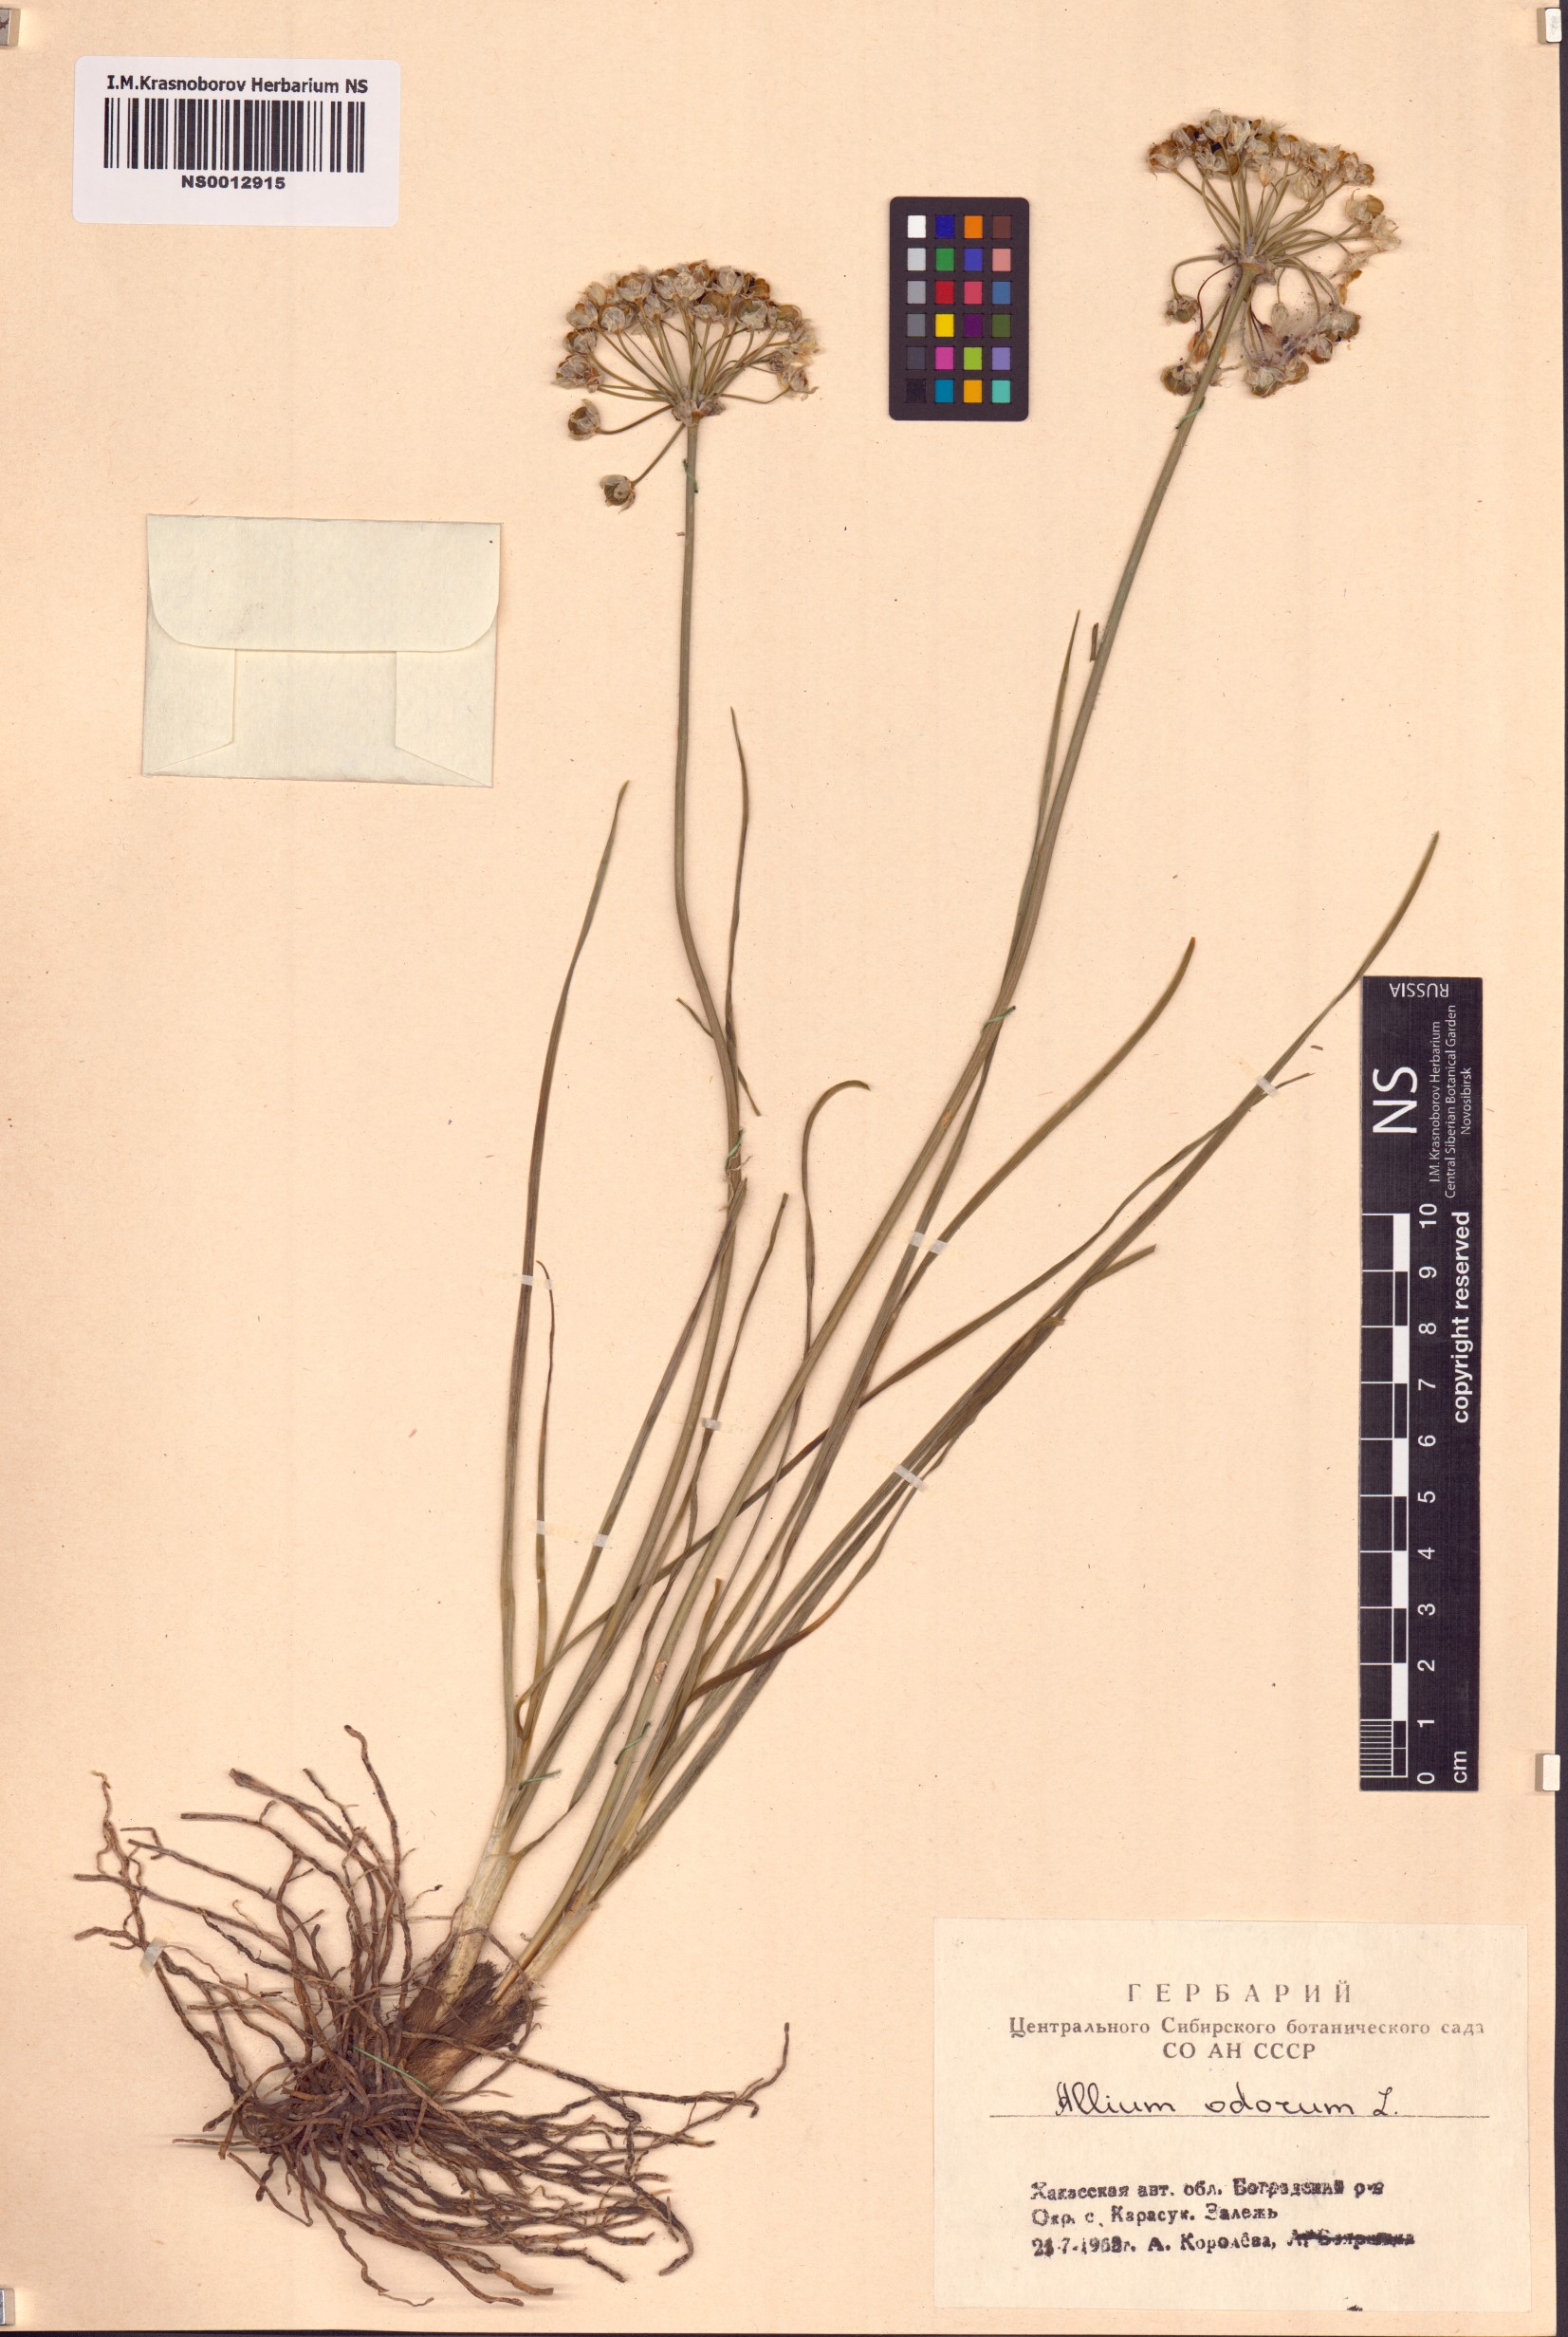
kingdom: Plantae
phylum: Tracheophyta
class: Liliopsida
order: Asparagales
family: Amaryllidaceae
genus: Allium
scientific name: Allium ramosum
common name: Fragrant garlic
